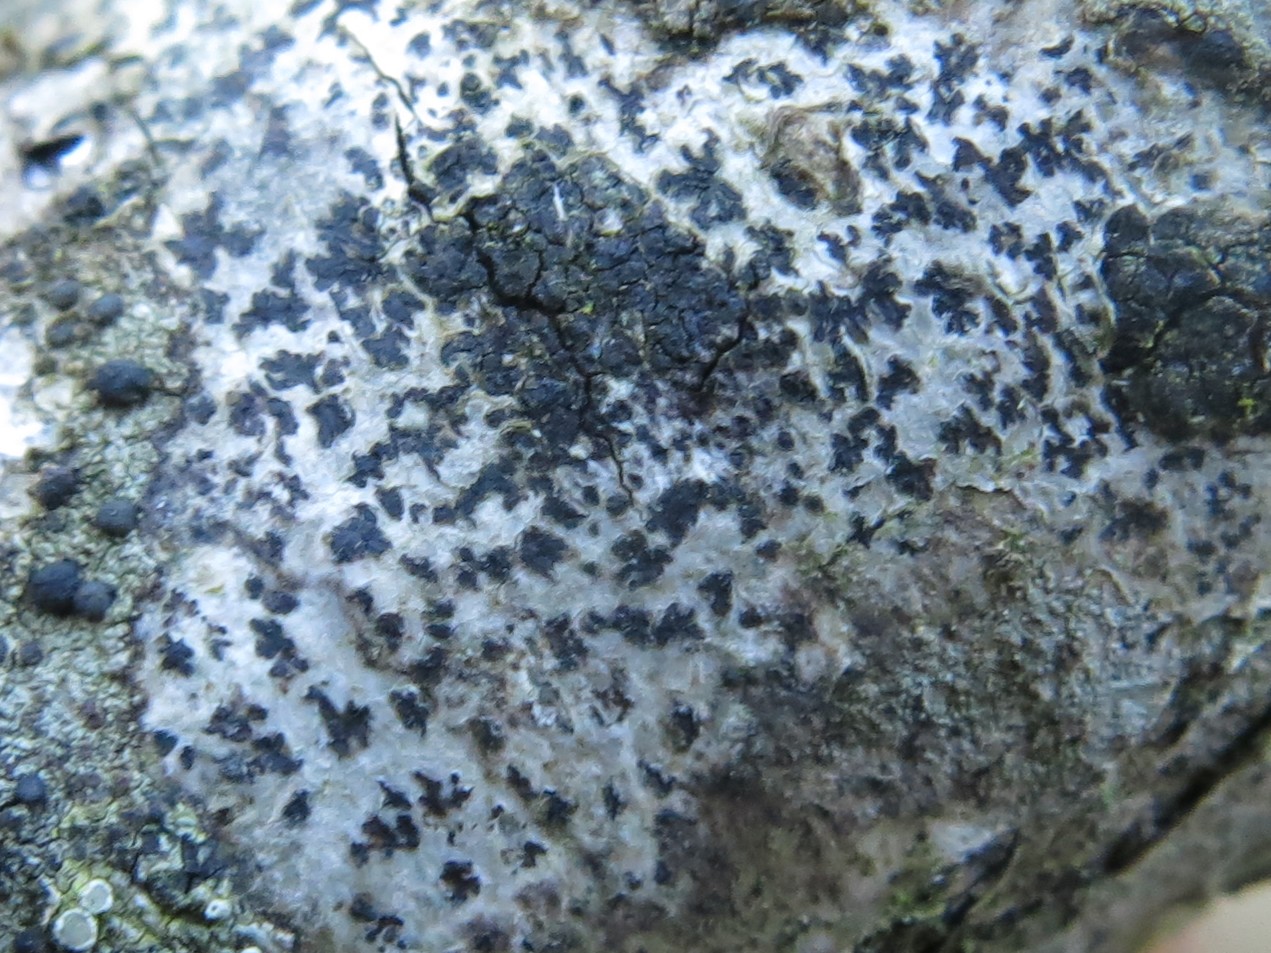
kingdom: Fungi
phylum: Ascomycota
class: Arthoniomycetes
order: Arthoniales
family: Arthoniaceae
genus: Arthonia
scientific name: Arthonia radiata
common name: stjerne-pletlav
